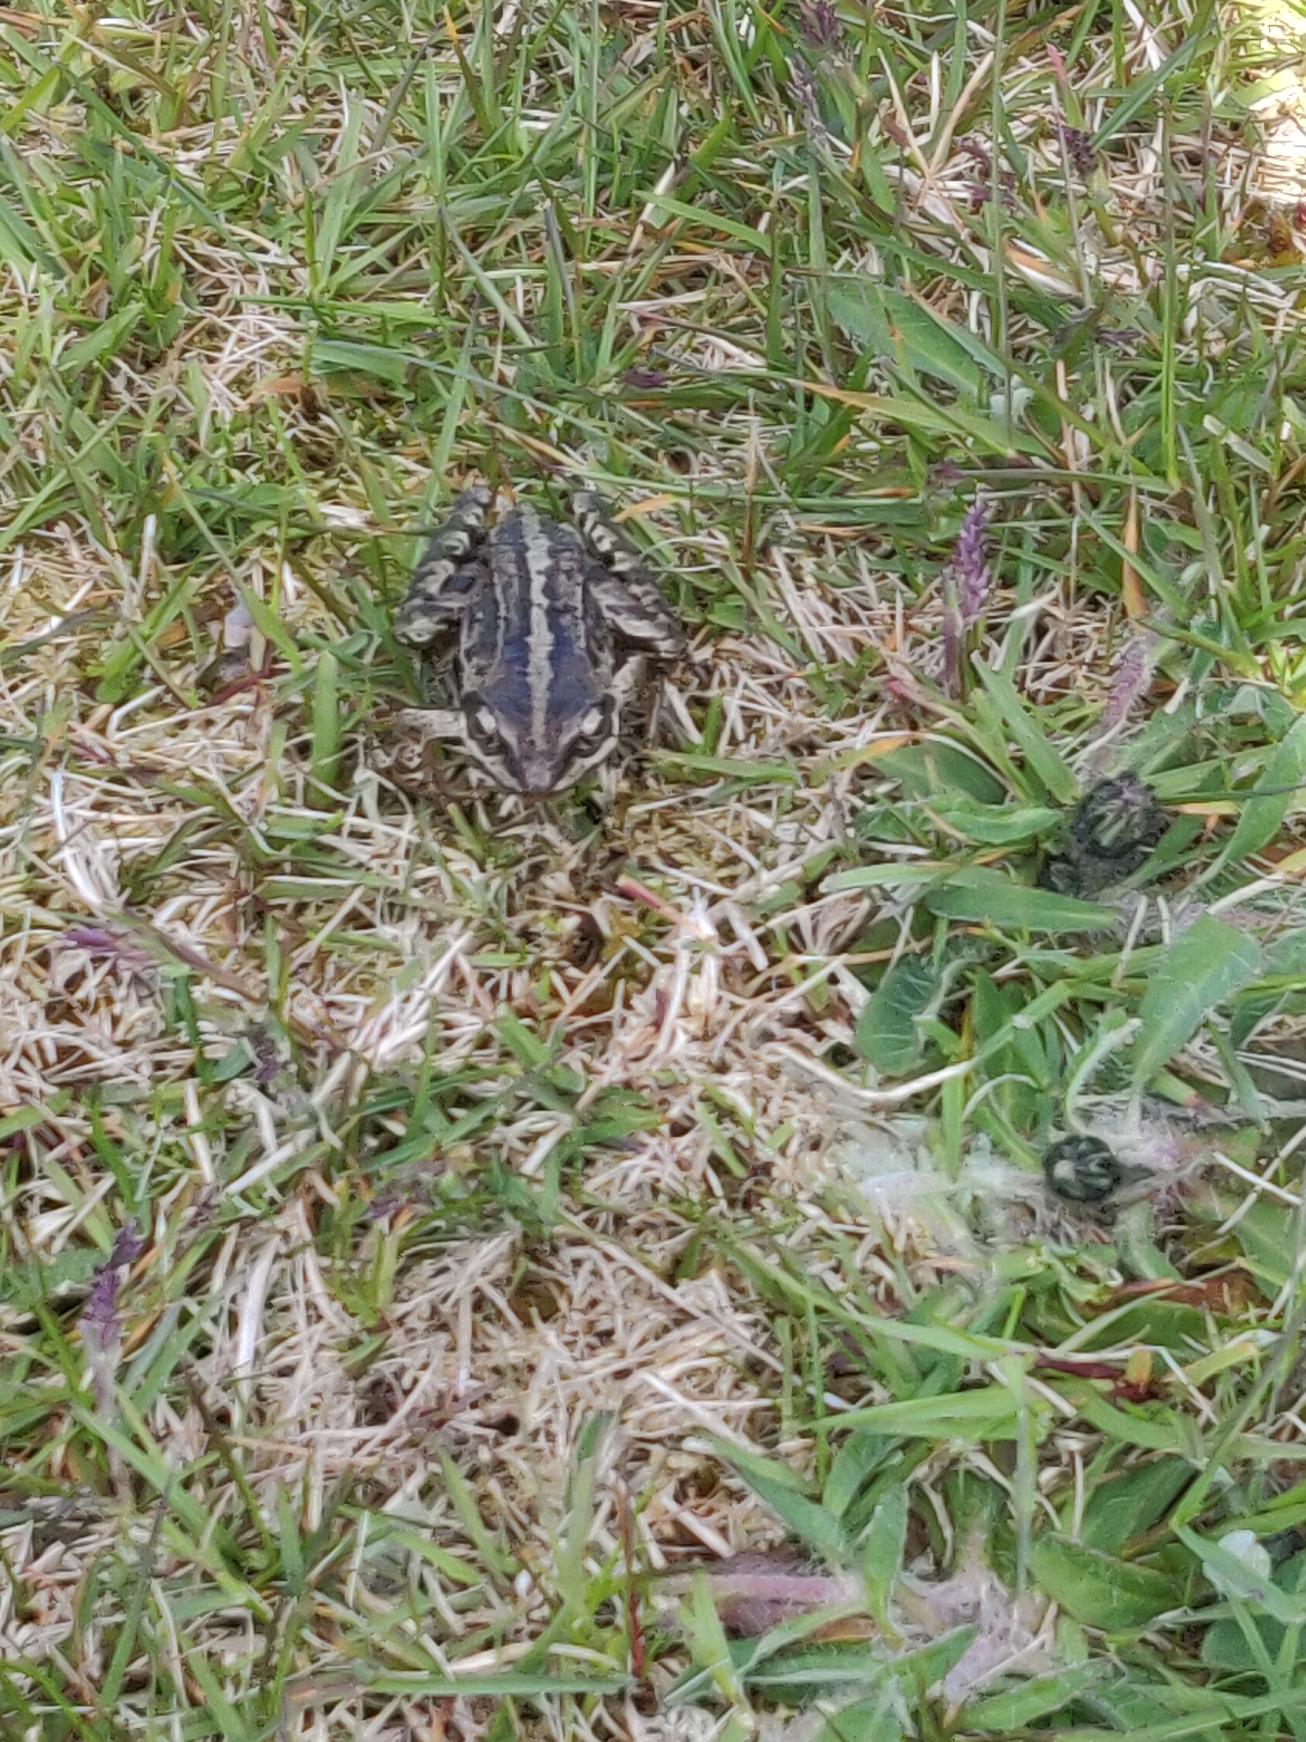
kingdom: Animalia
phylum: Chordata
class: Amphibia
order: Anura
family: Ranidae
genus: Rana
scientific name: Rana arvalis
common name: Spidssnudet frø
